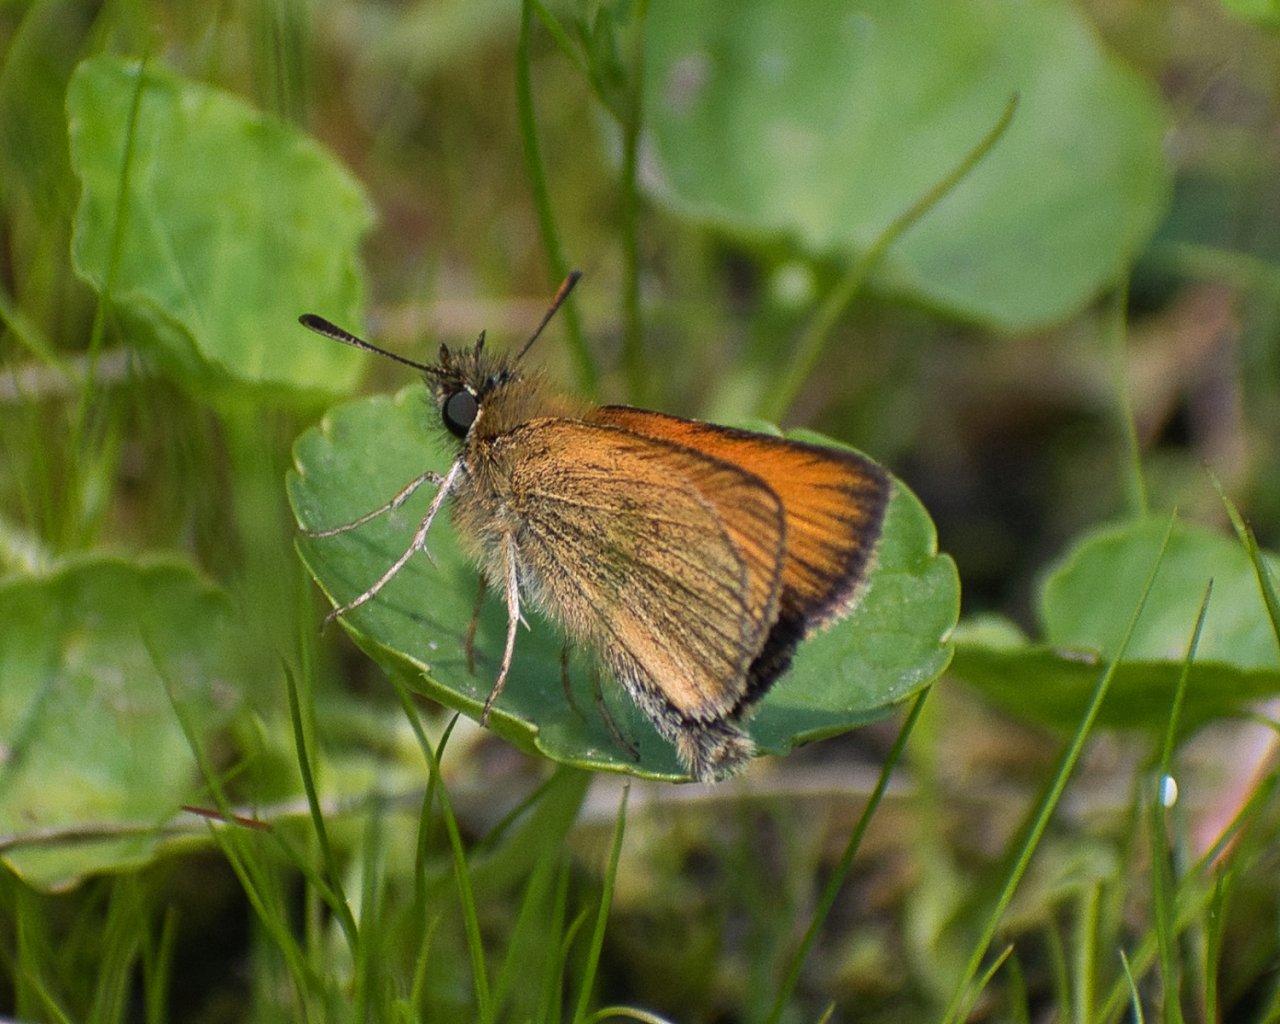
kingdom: Animalia
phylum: Arthropoda
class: Insecta
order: Lepidoptera
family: Hesperiidae
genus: Thymelicus
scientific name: Thymelicus lineola
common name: European Skipper
